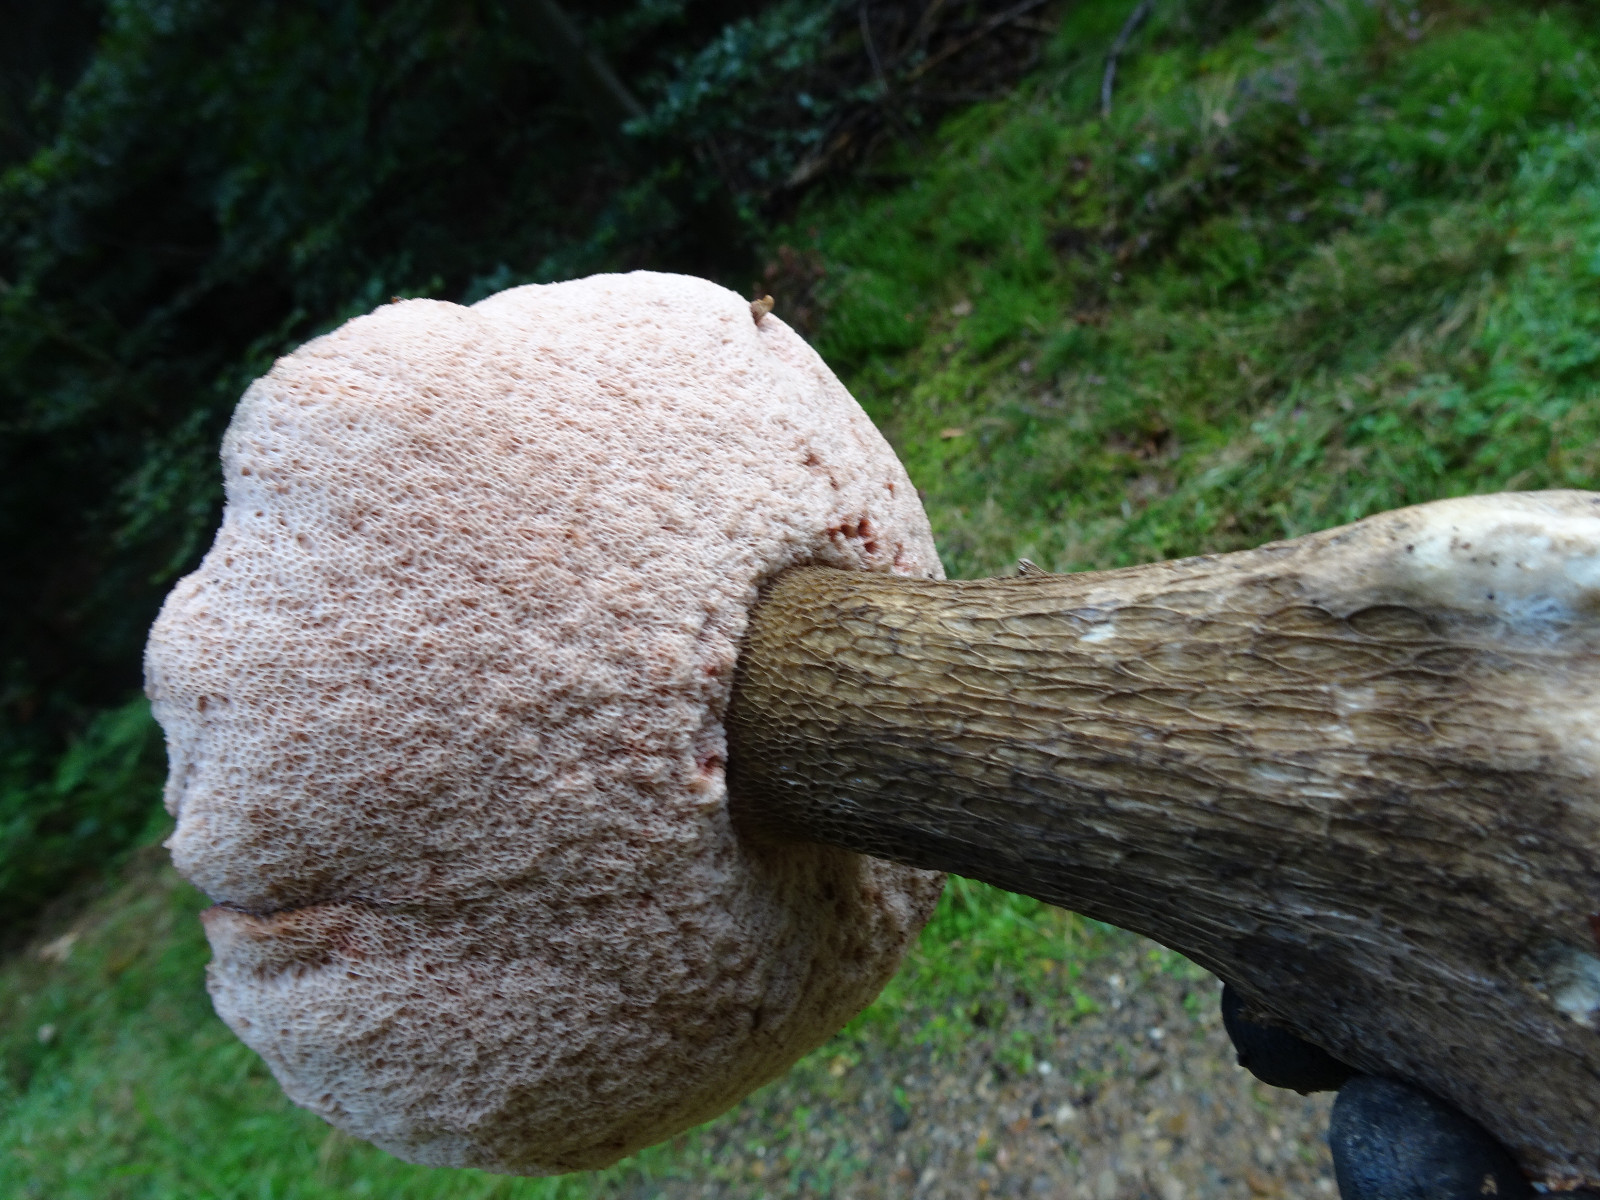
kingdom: Fungi
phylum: Basidiomycota
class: Agaricomycetes
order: Boletales
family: Boletaceae
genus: Tylopilus
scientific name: Tylopilus felleus
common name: galderørhat
